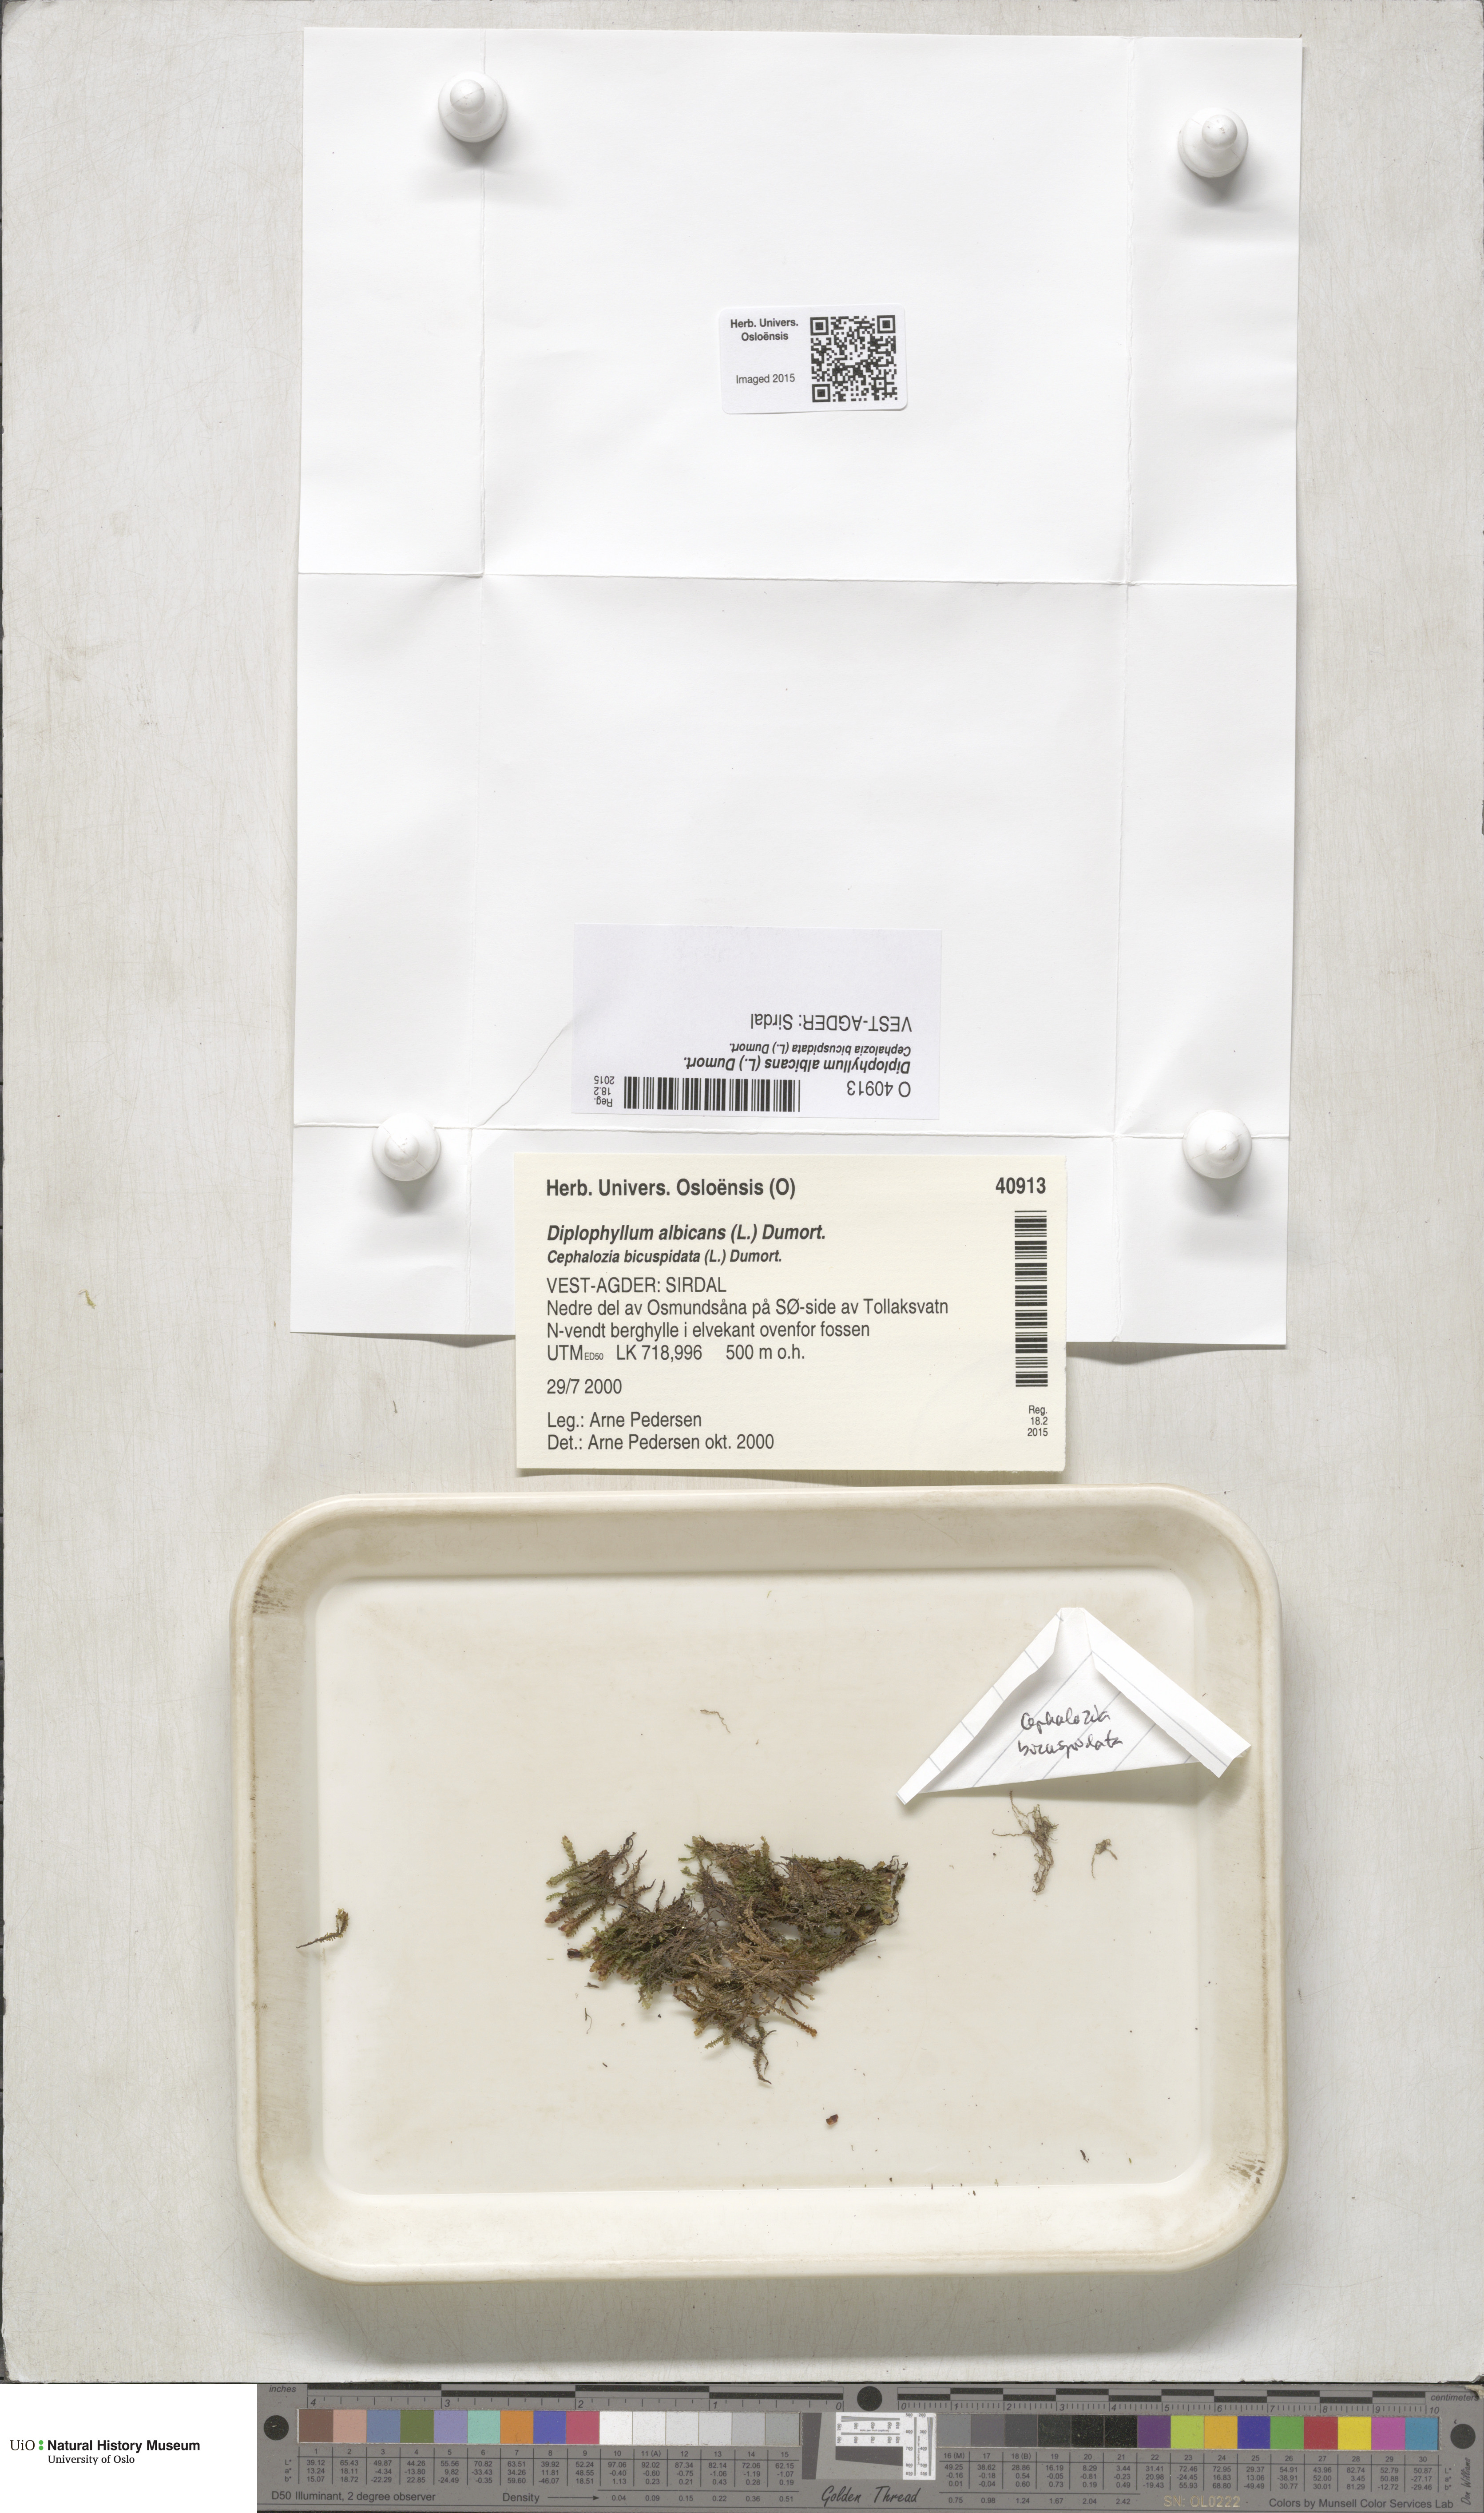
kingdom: Plantae
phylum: Marchantiophyta
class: Jungermanniopsida
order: Jungermanniales
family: Scapaniaceae
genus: Diplophyllum
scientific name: Diplophyllum albicans
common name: White earwort
